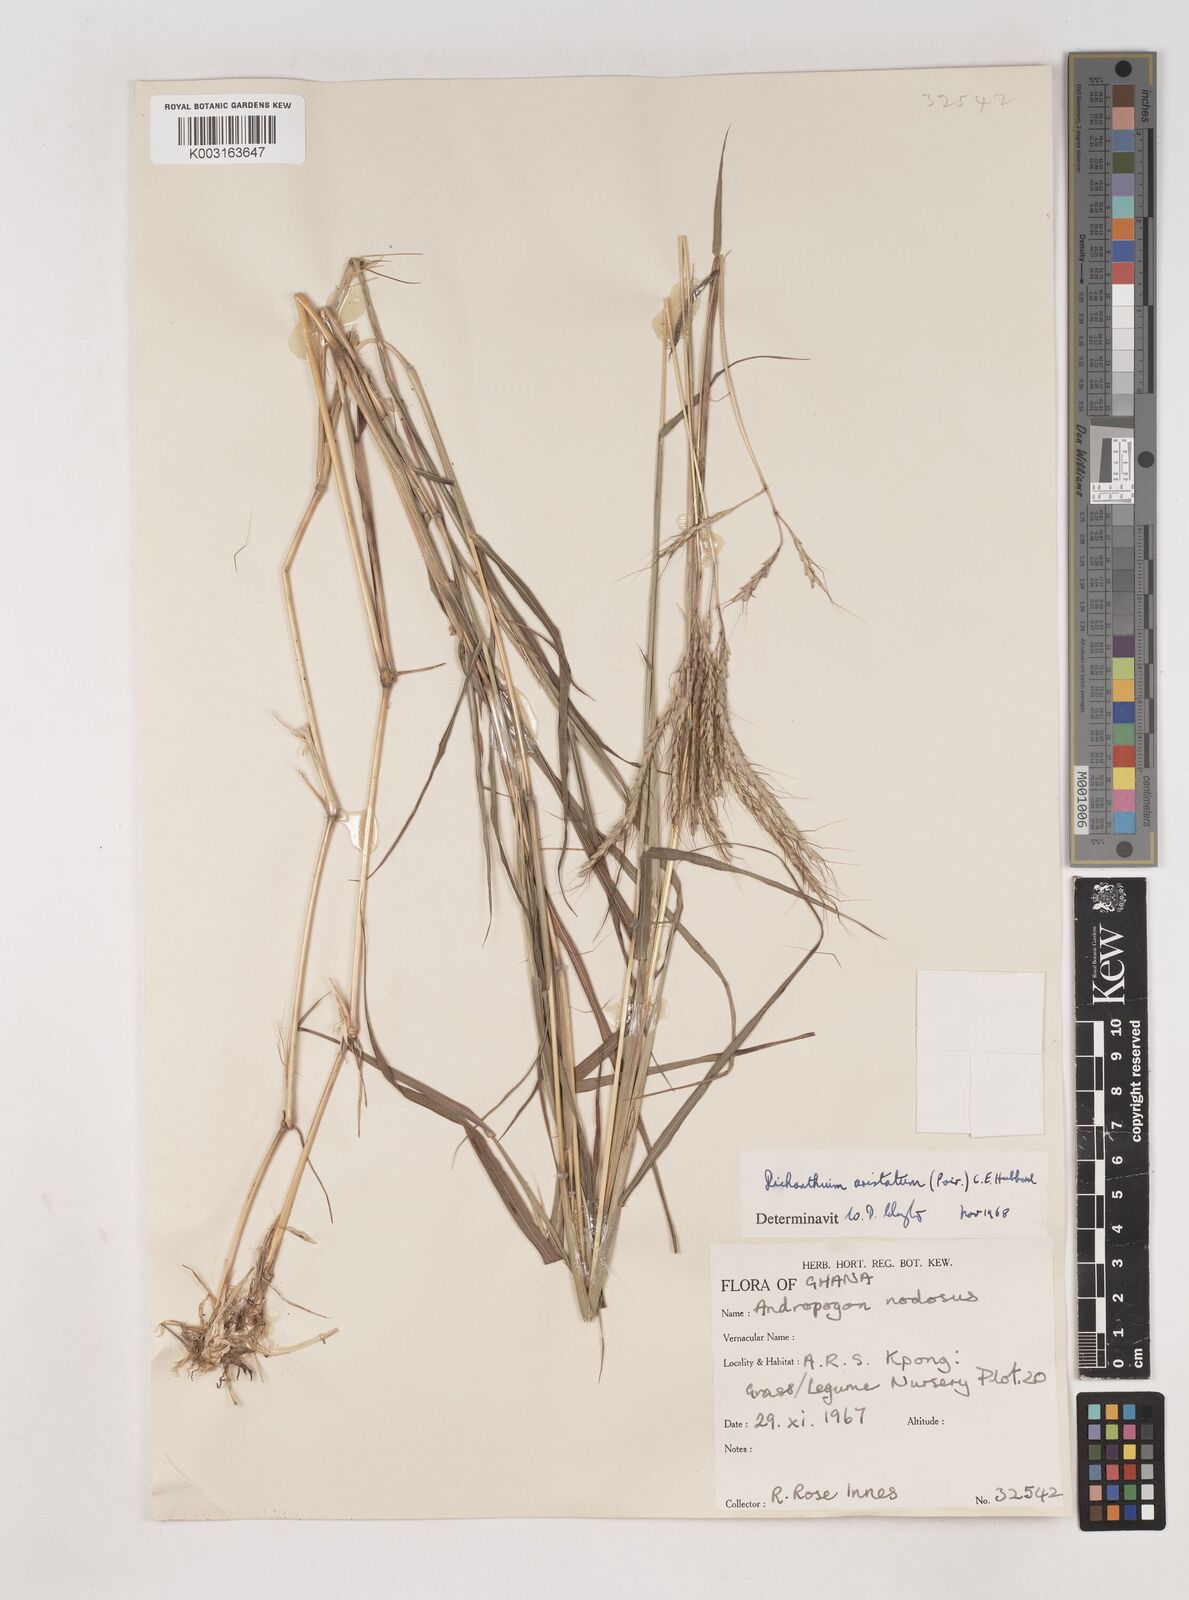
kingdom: Plantae
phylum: Tracheophyta
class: Liliopsida
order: Poales
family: Poaceae
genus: Dichanthium
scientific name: Dichanthium aristatum
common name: Angleton bluestem
